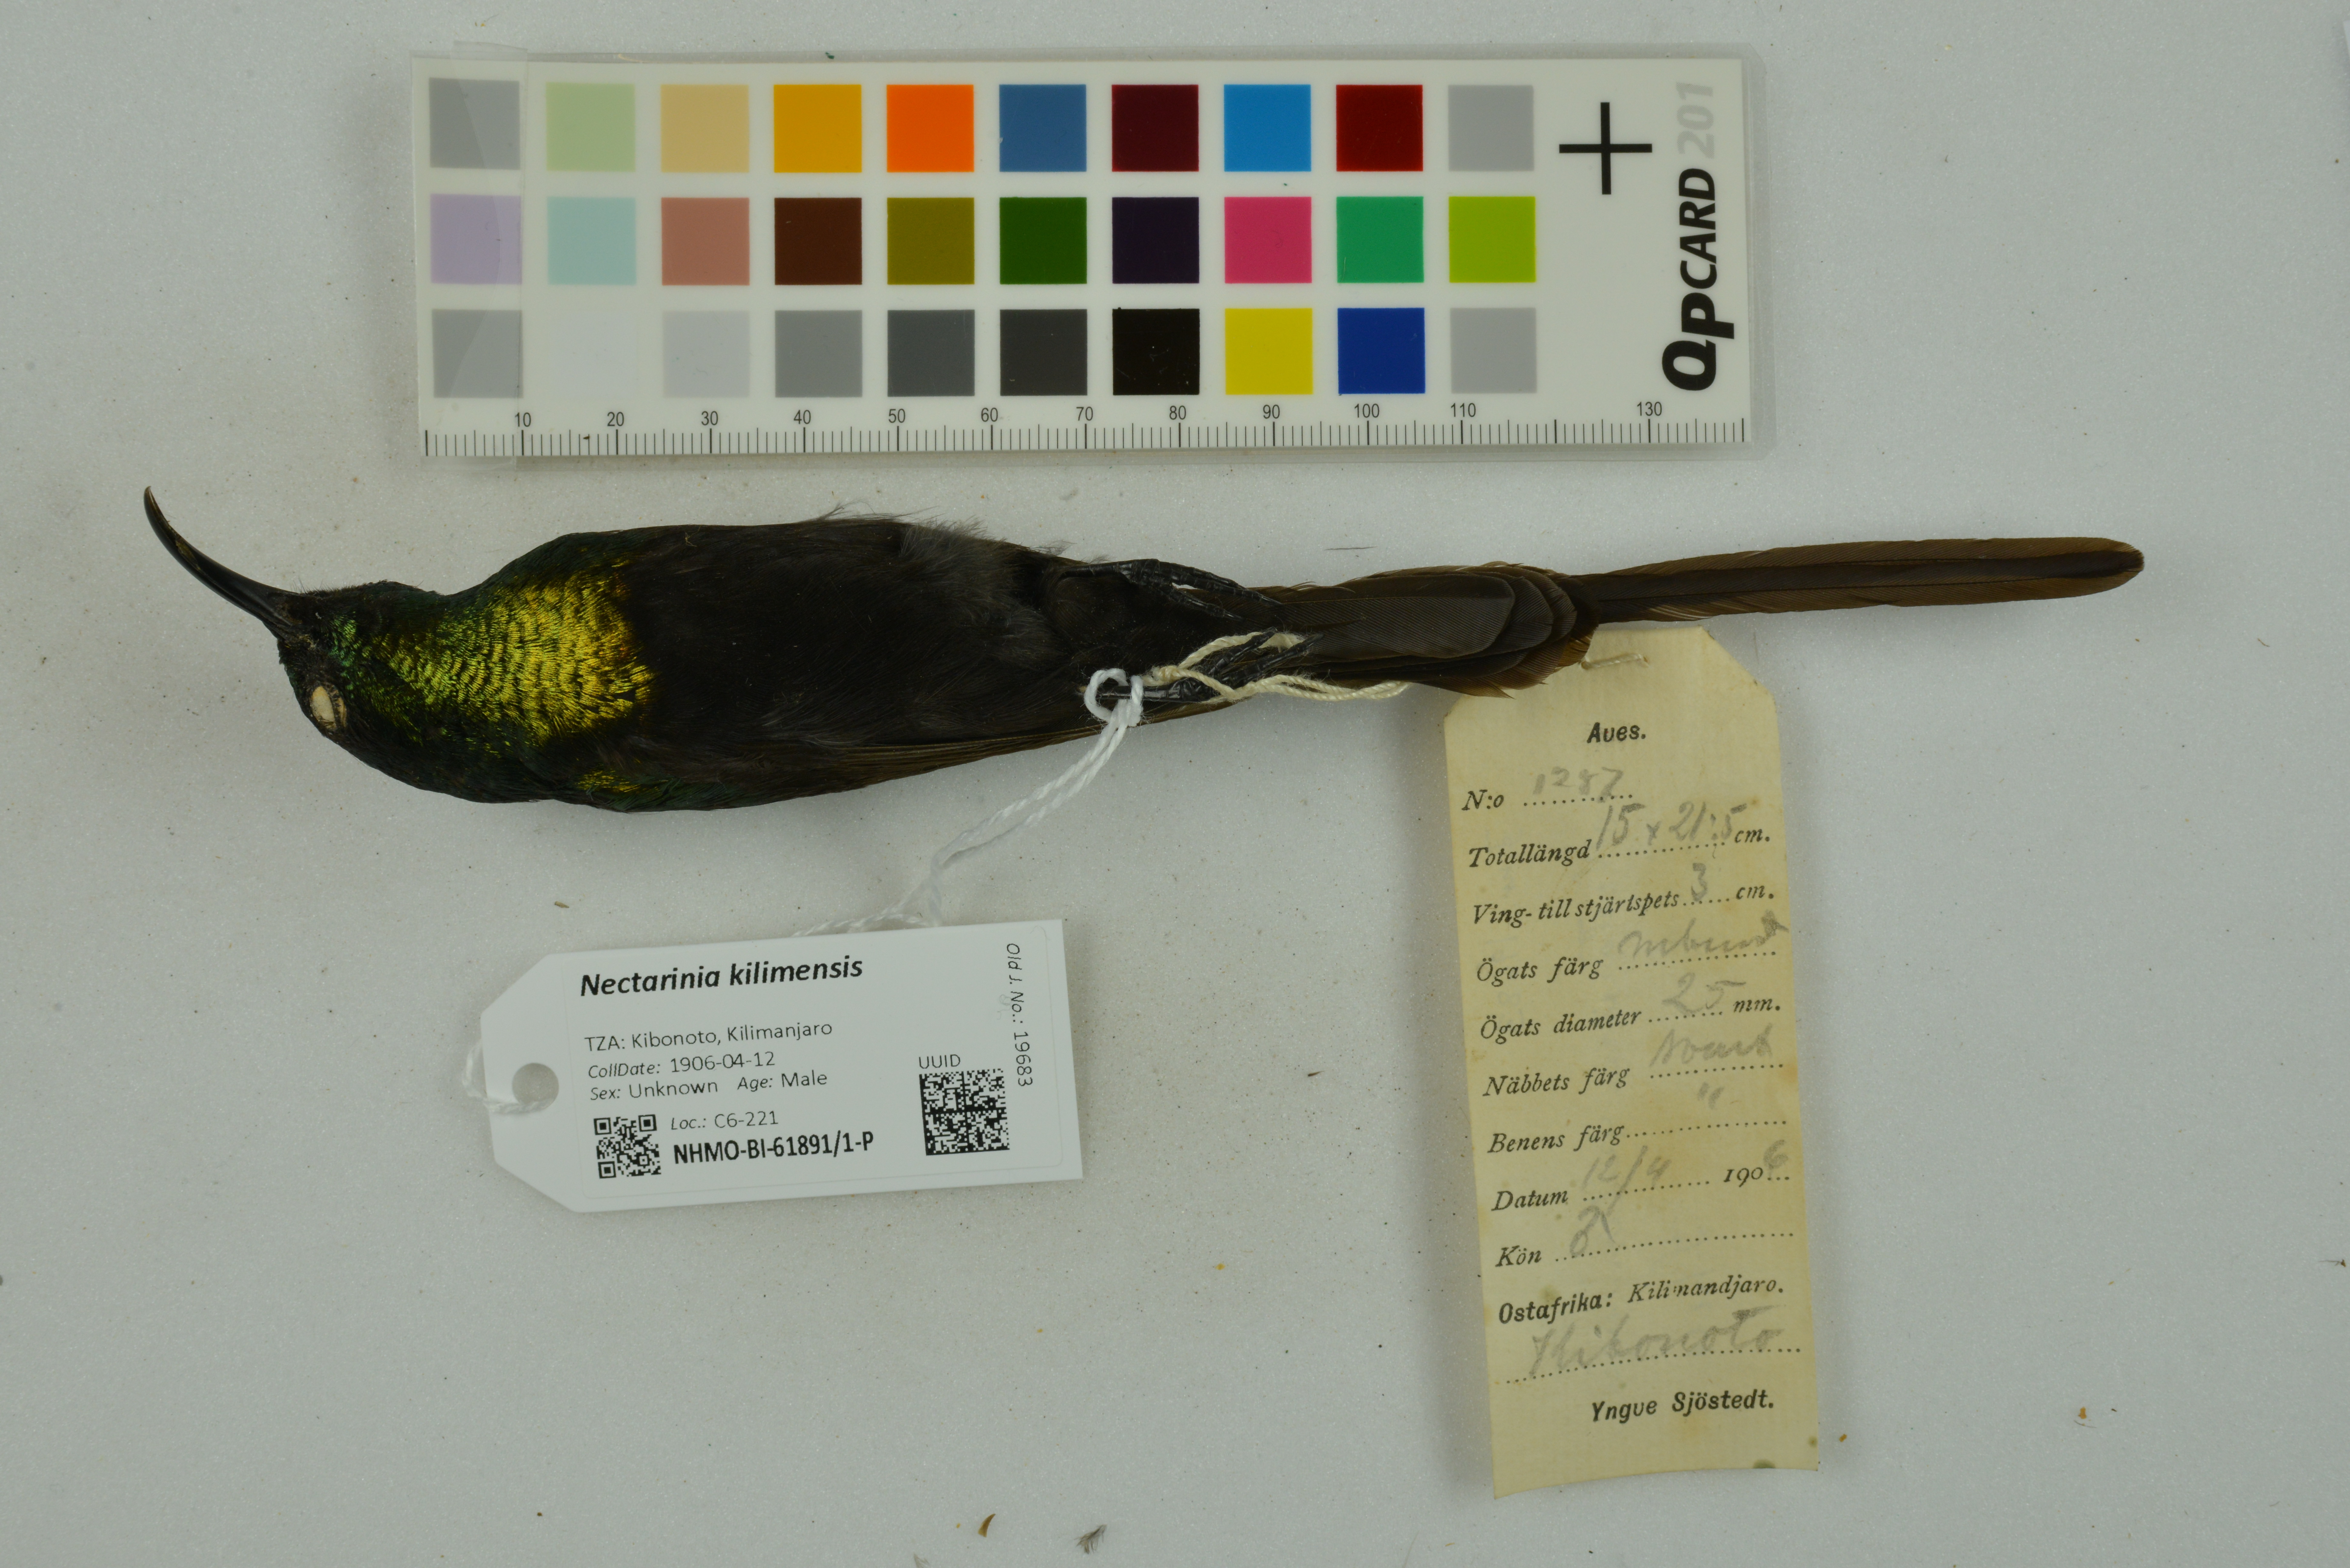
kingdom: Animalia
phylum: Chordata
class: Aves
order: Passeriformes
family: Nectariniidae
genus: Nectarinia
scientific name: Nectarinia kilimensis
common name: Bronzy sunbird
